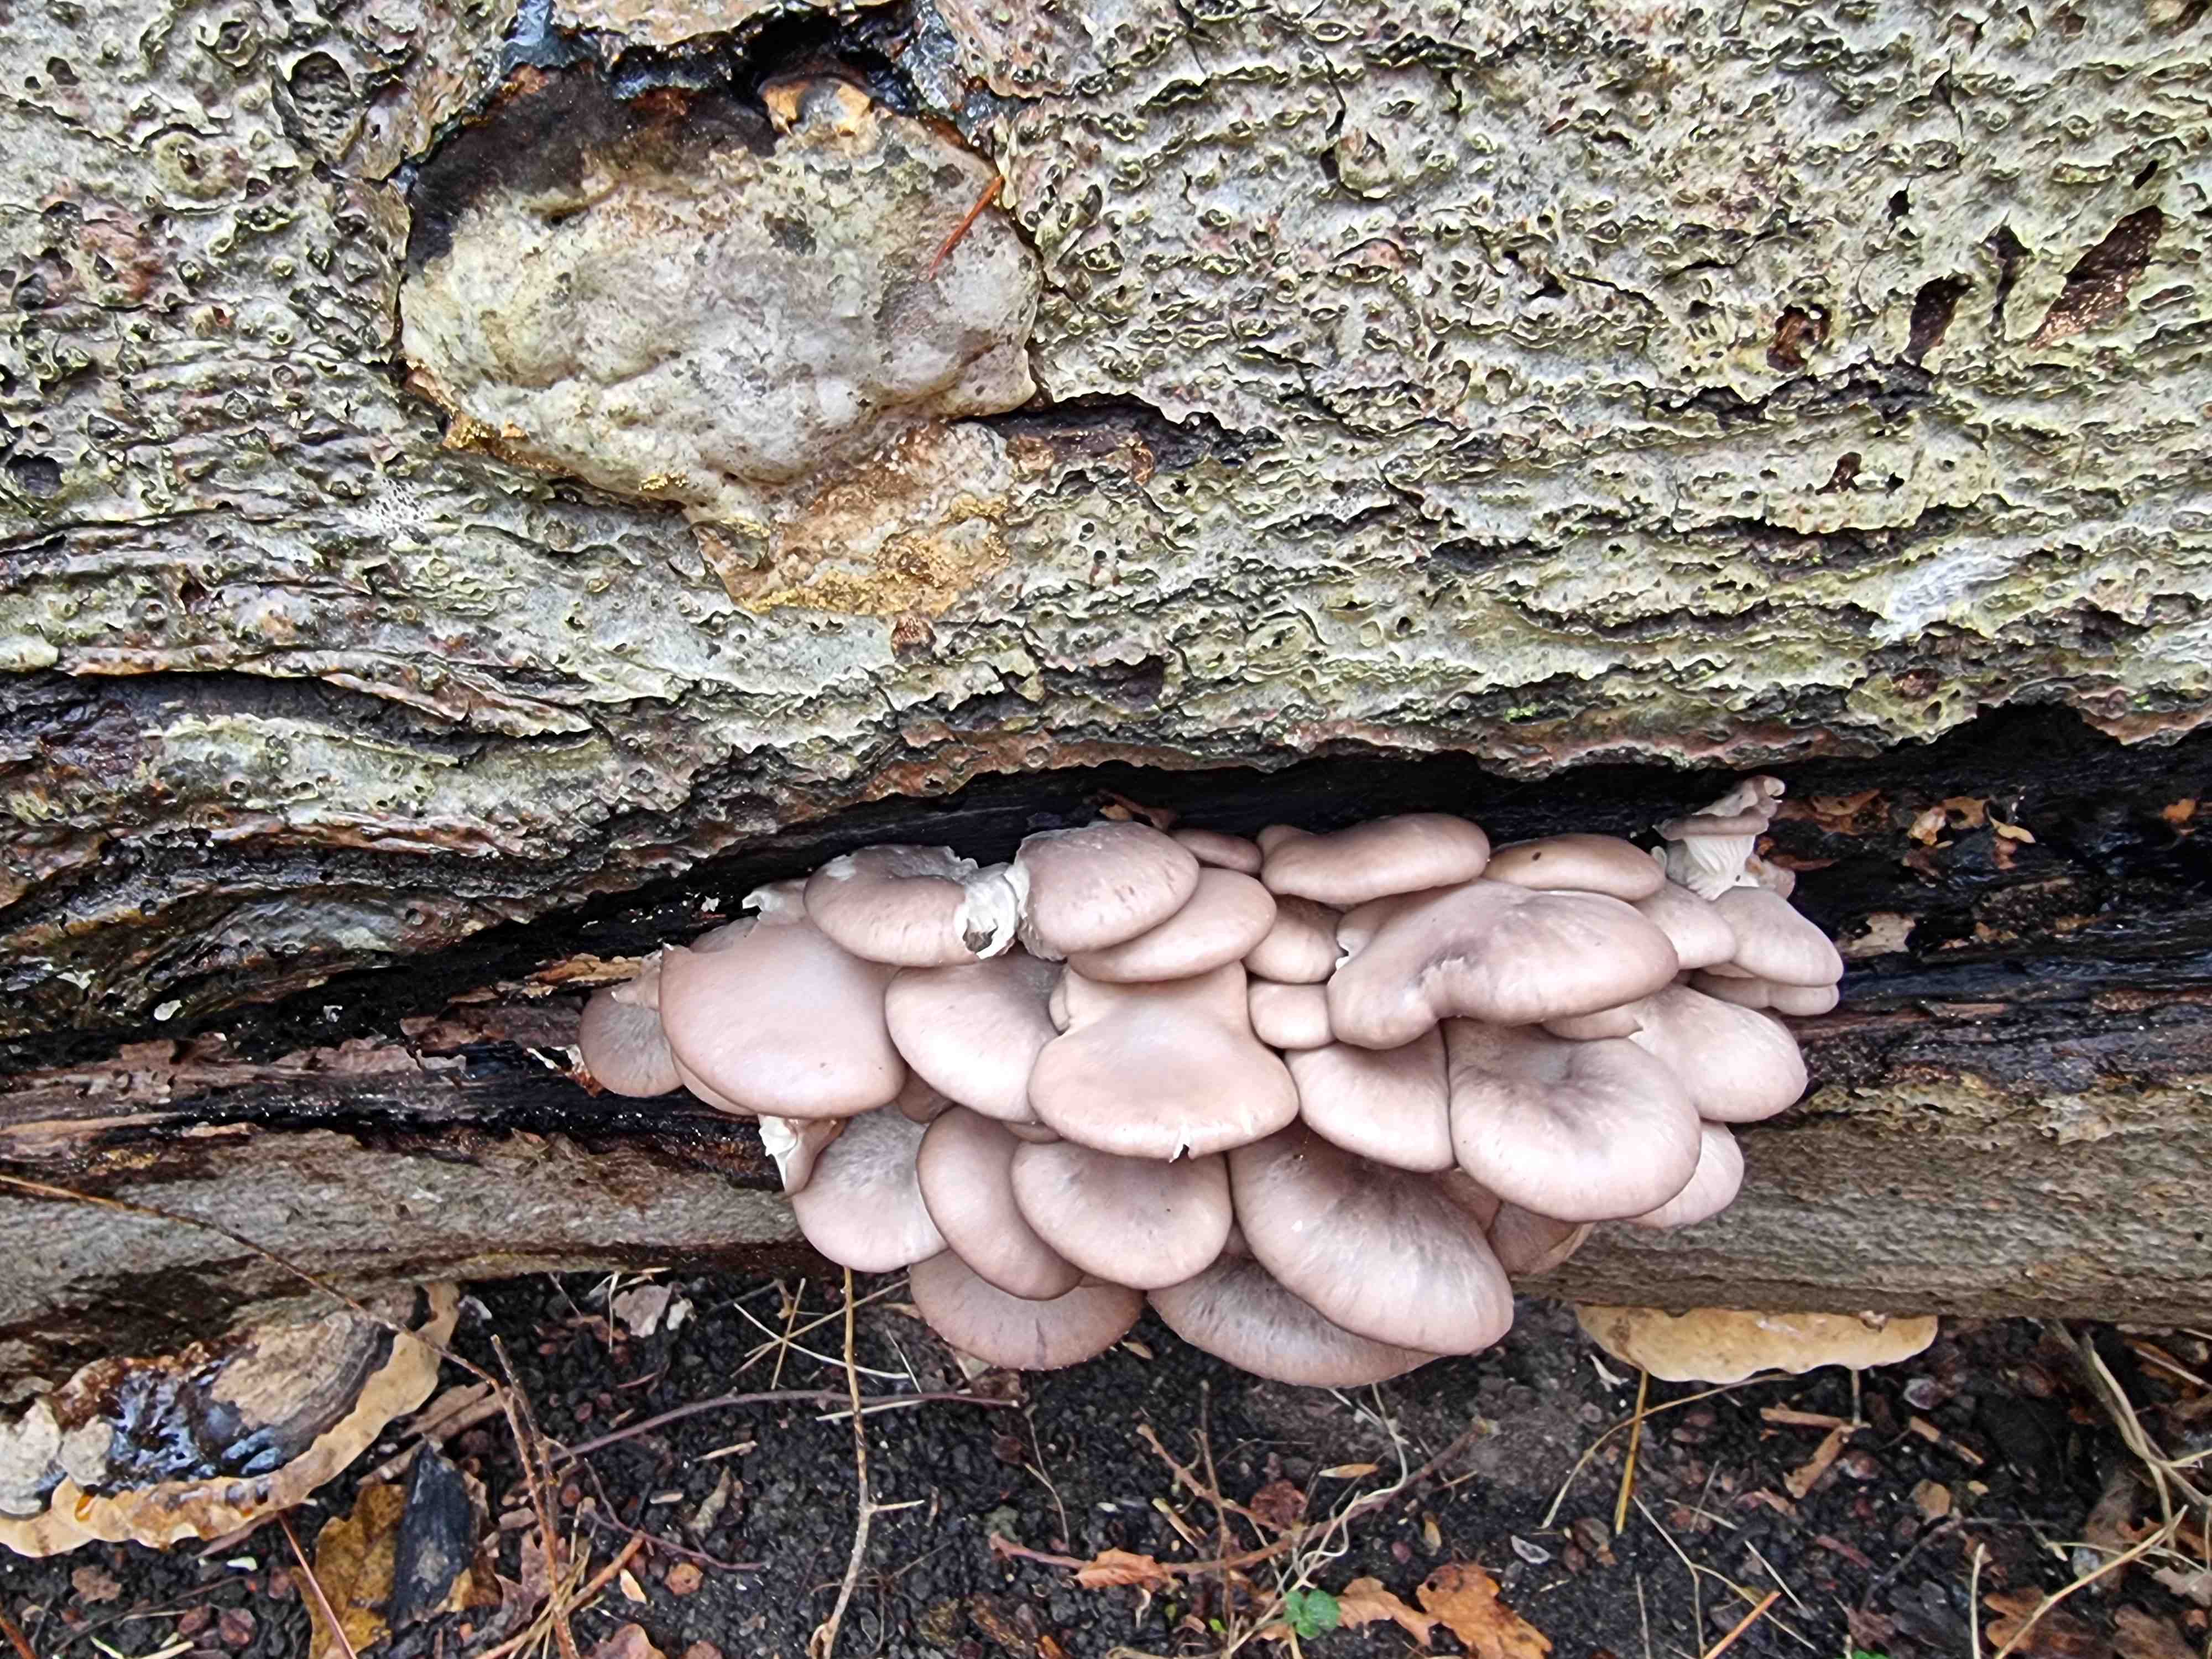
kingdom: Fungi
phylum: Basidiomycota
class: Agaricomycetes
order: Agaricales
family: Pleurotaceae
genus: Pleurotus
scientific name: Pleurotus ostreatus
